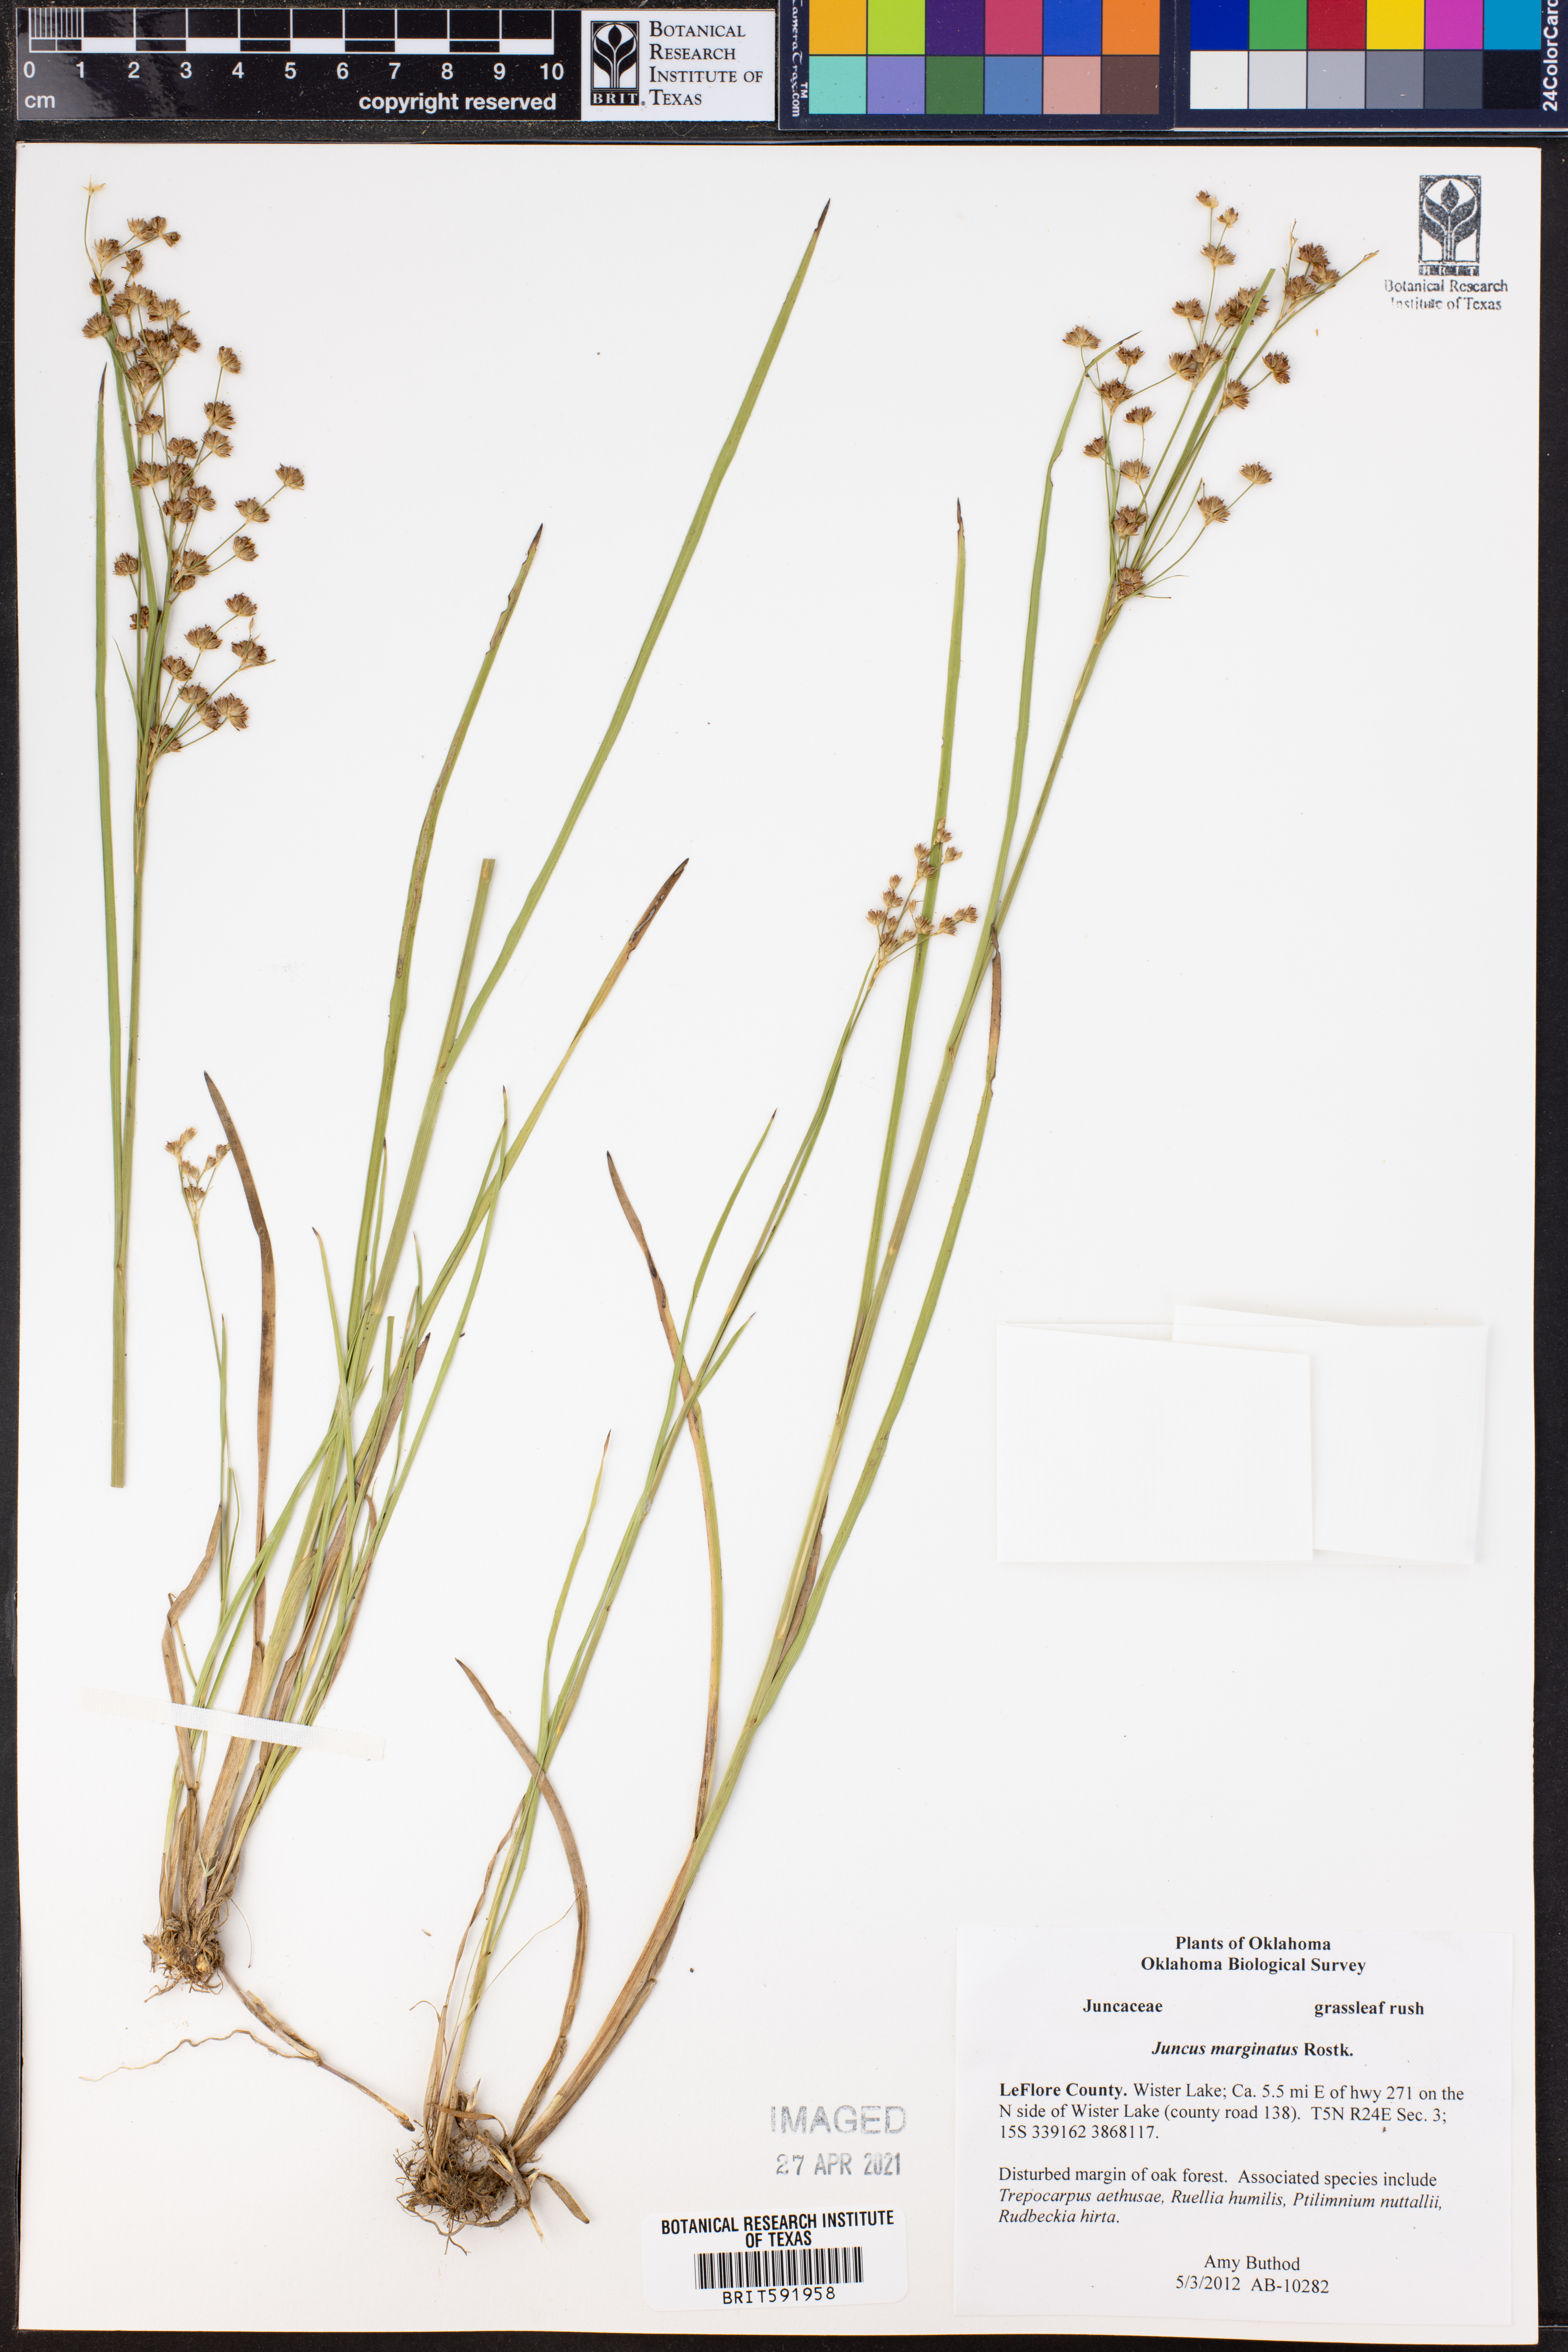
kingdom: Plantae
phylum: Tracheophyta
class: Liliopsida
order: Poales
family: Juncaceae
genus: Juncus
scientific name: Juncus marginatus
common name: Grass-leaf rush
